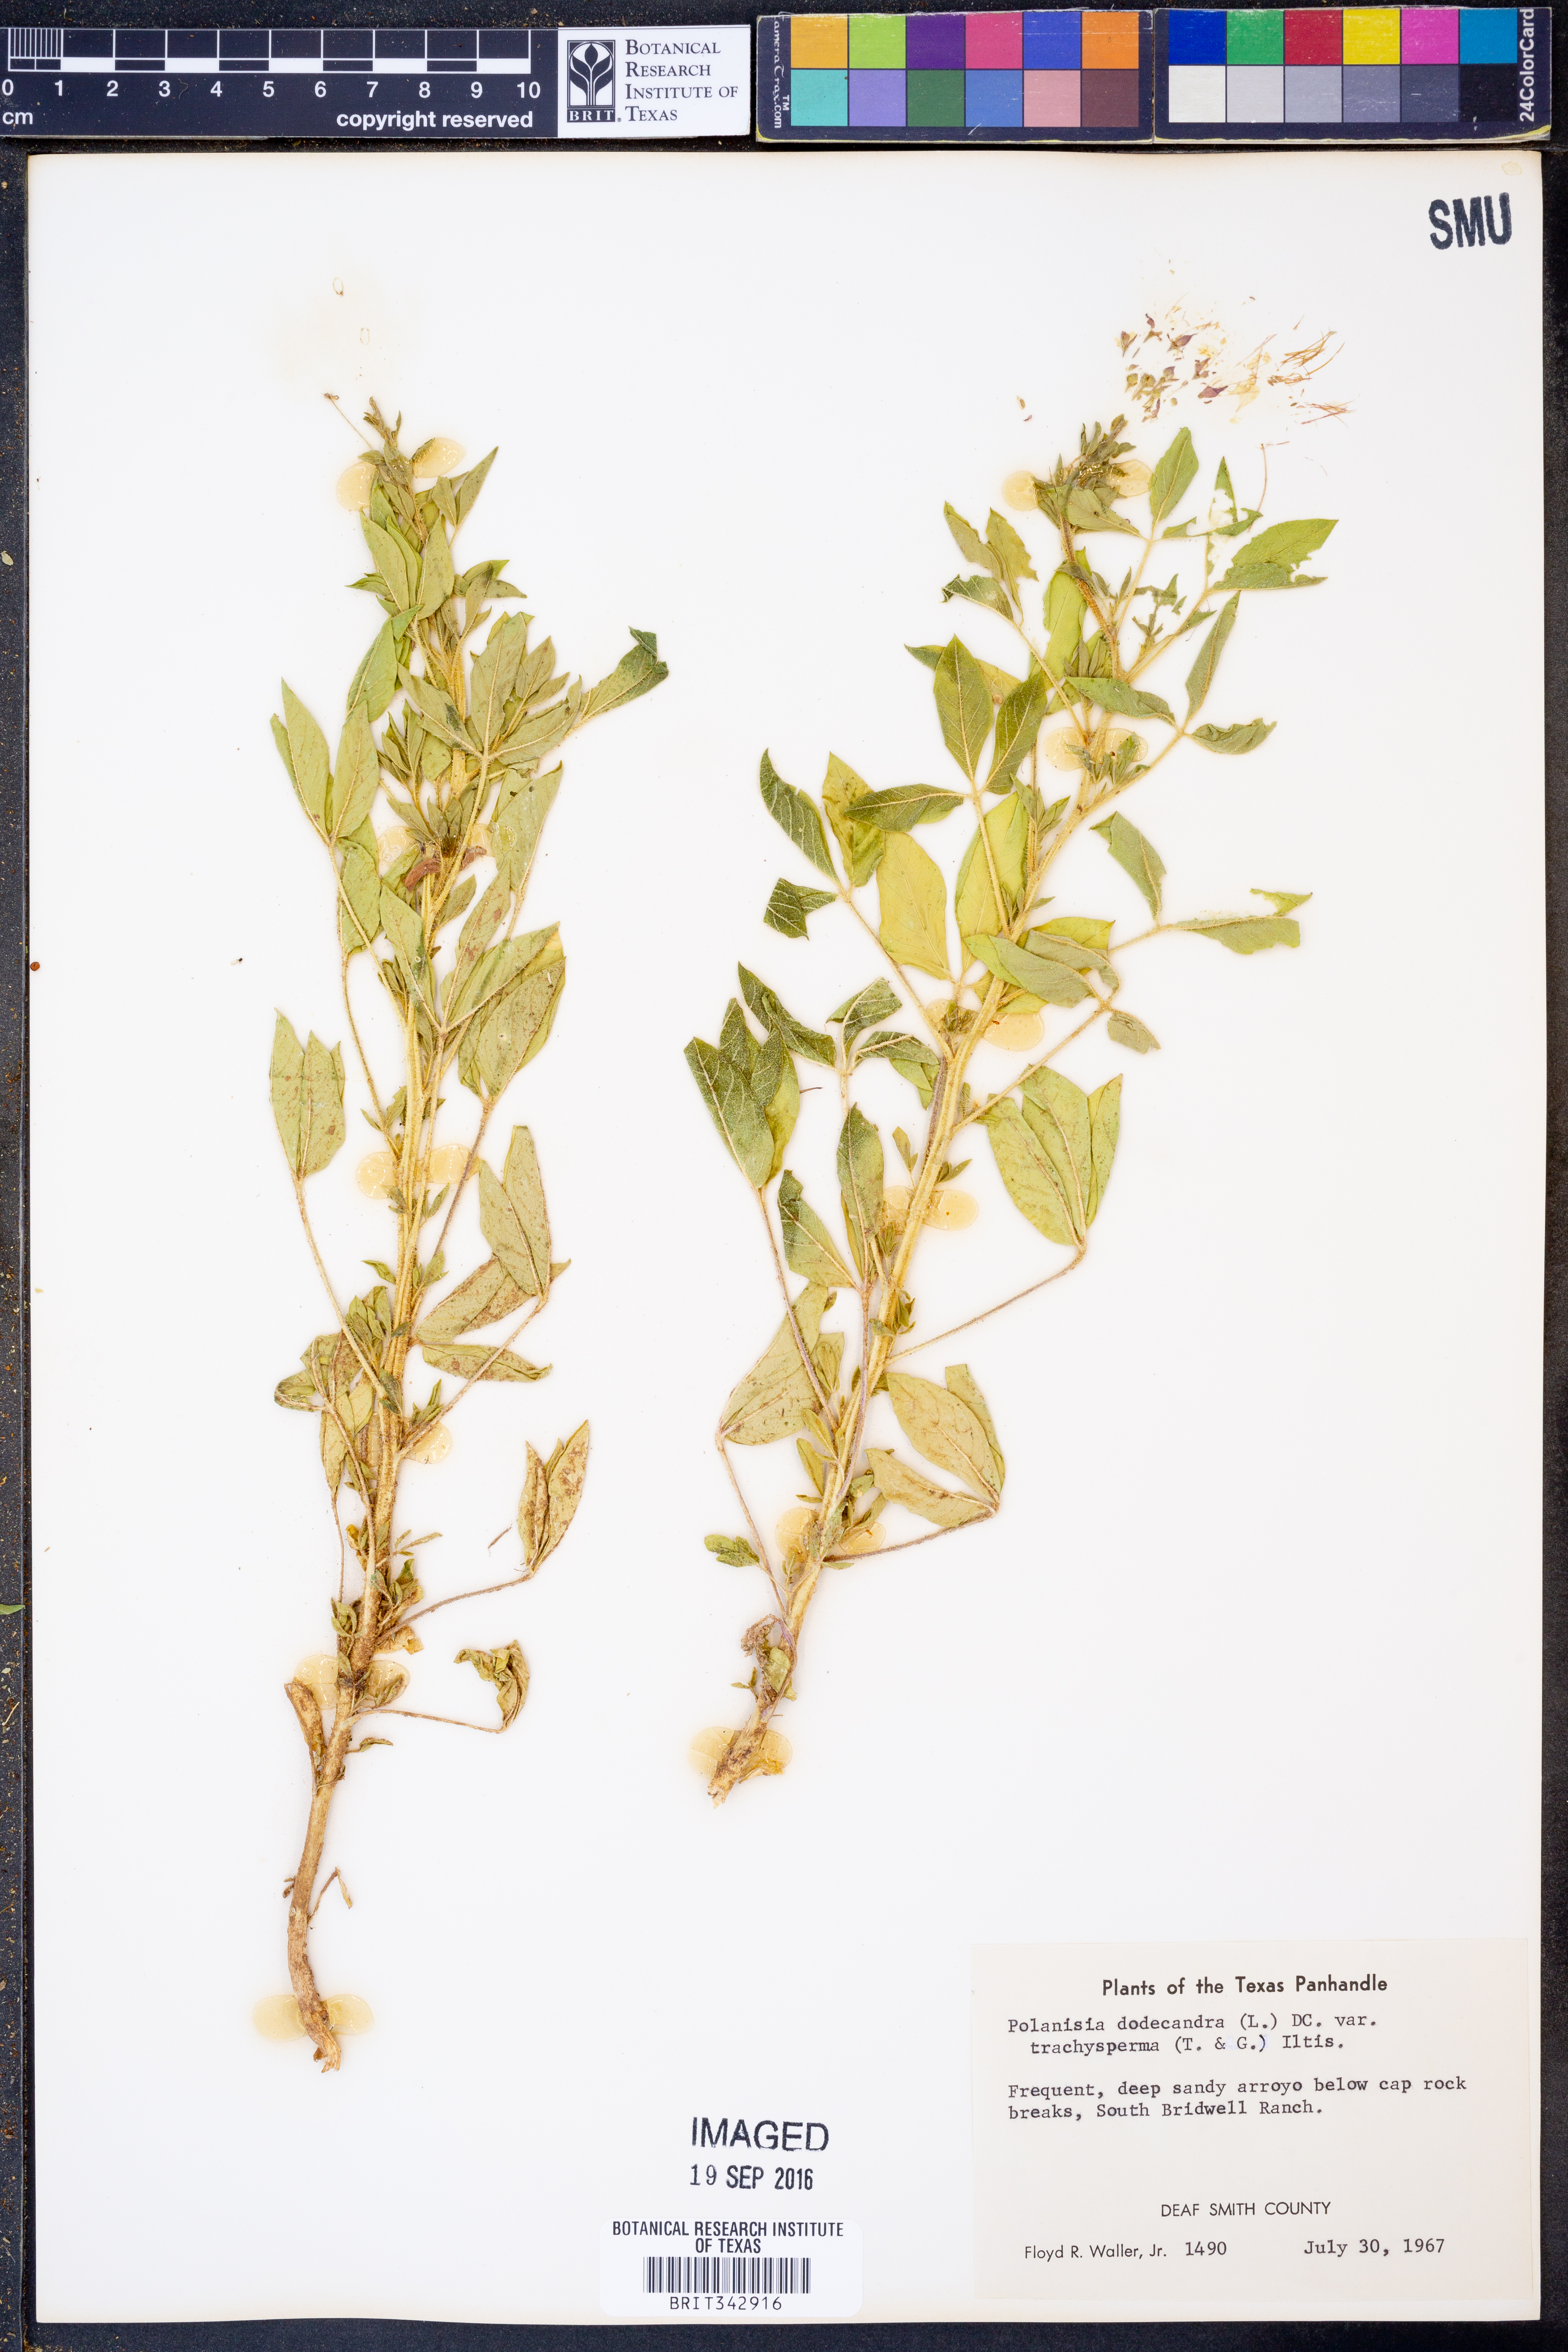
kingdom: Plantae
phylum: Tracheophyta
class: Magnoliopsida
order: Brassicales
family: Cleomaceae
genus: Polanisia
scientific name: Polanisia trachysperma
